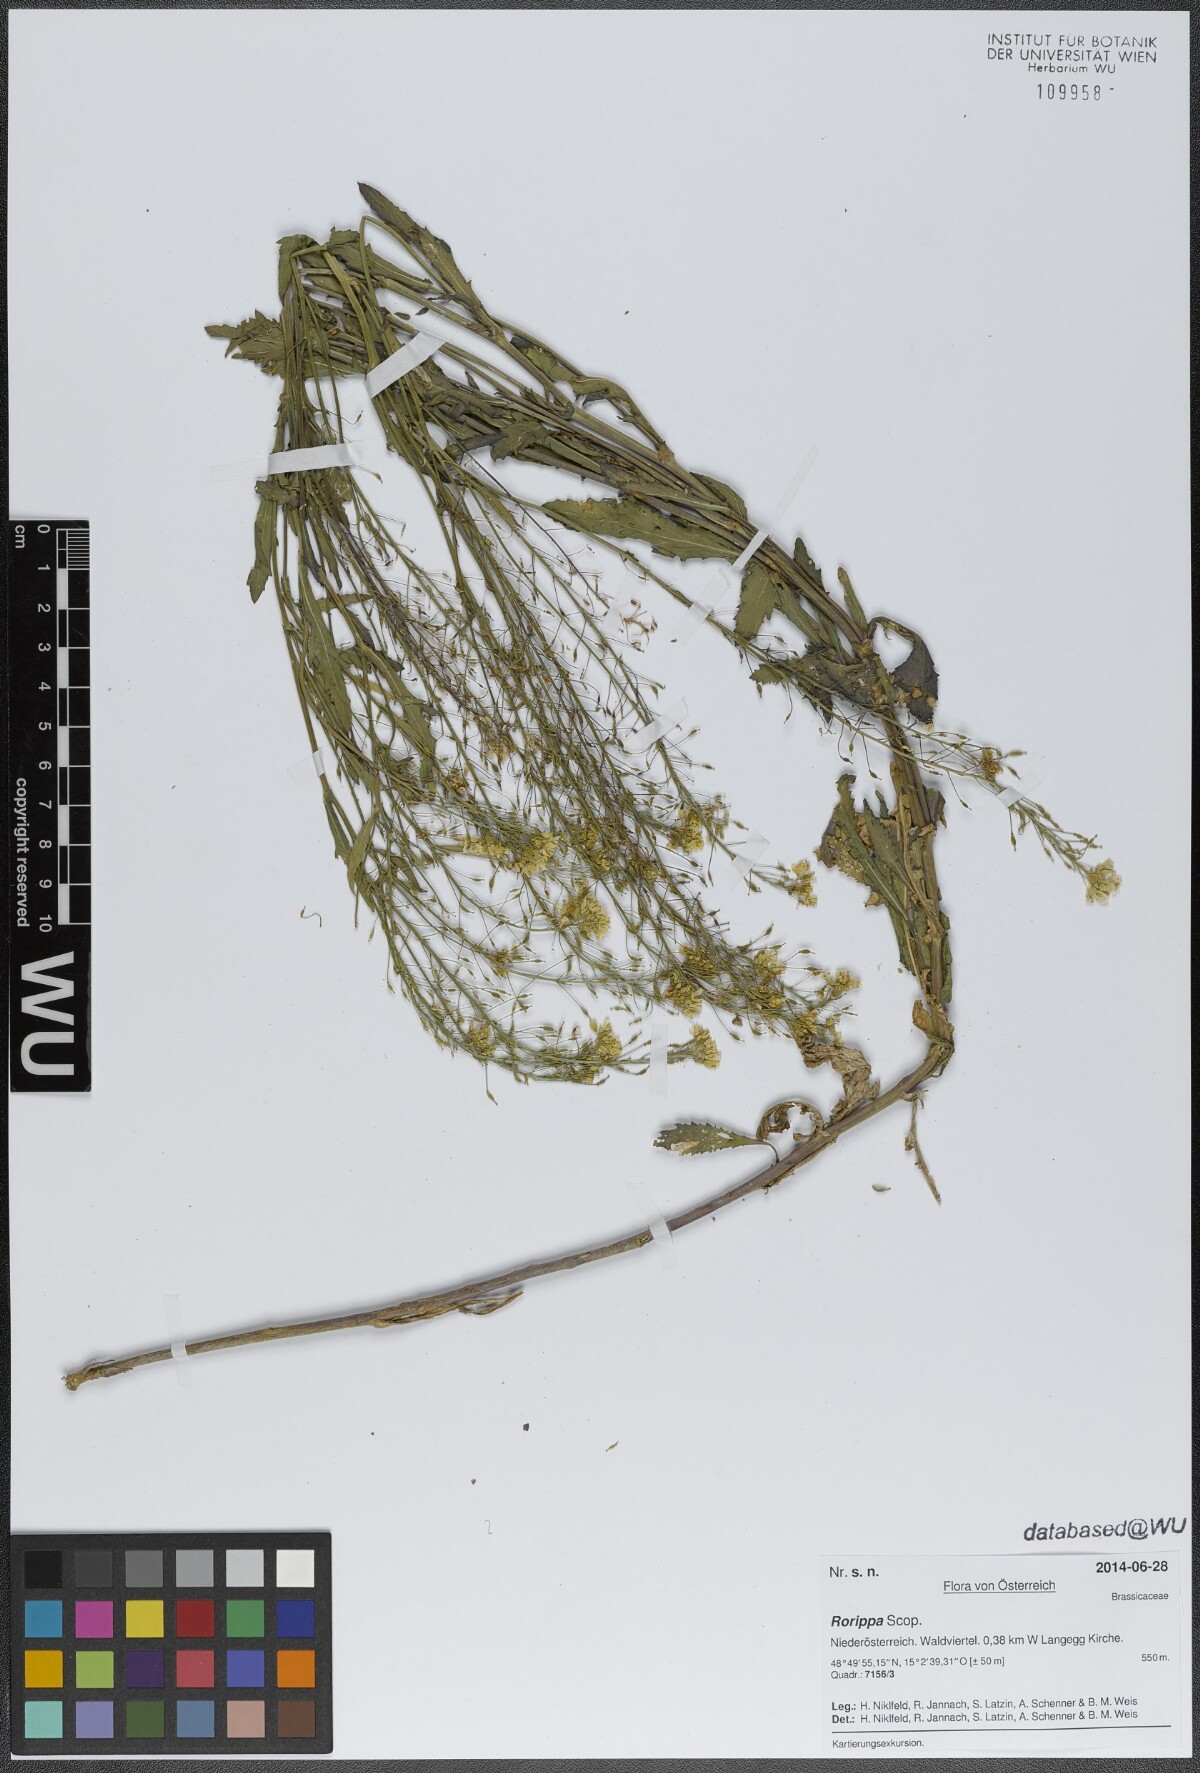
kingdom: Plantae
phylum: Tracheophyta
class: Magnoliopsida
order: Brassicales
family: Brassicaceae
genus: Rorippa
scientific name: Rorippa
